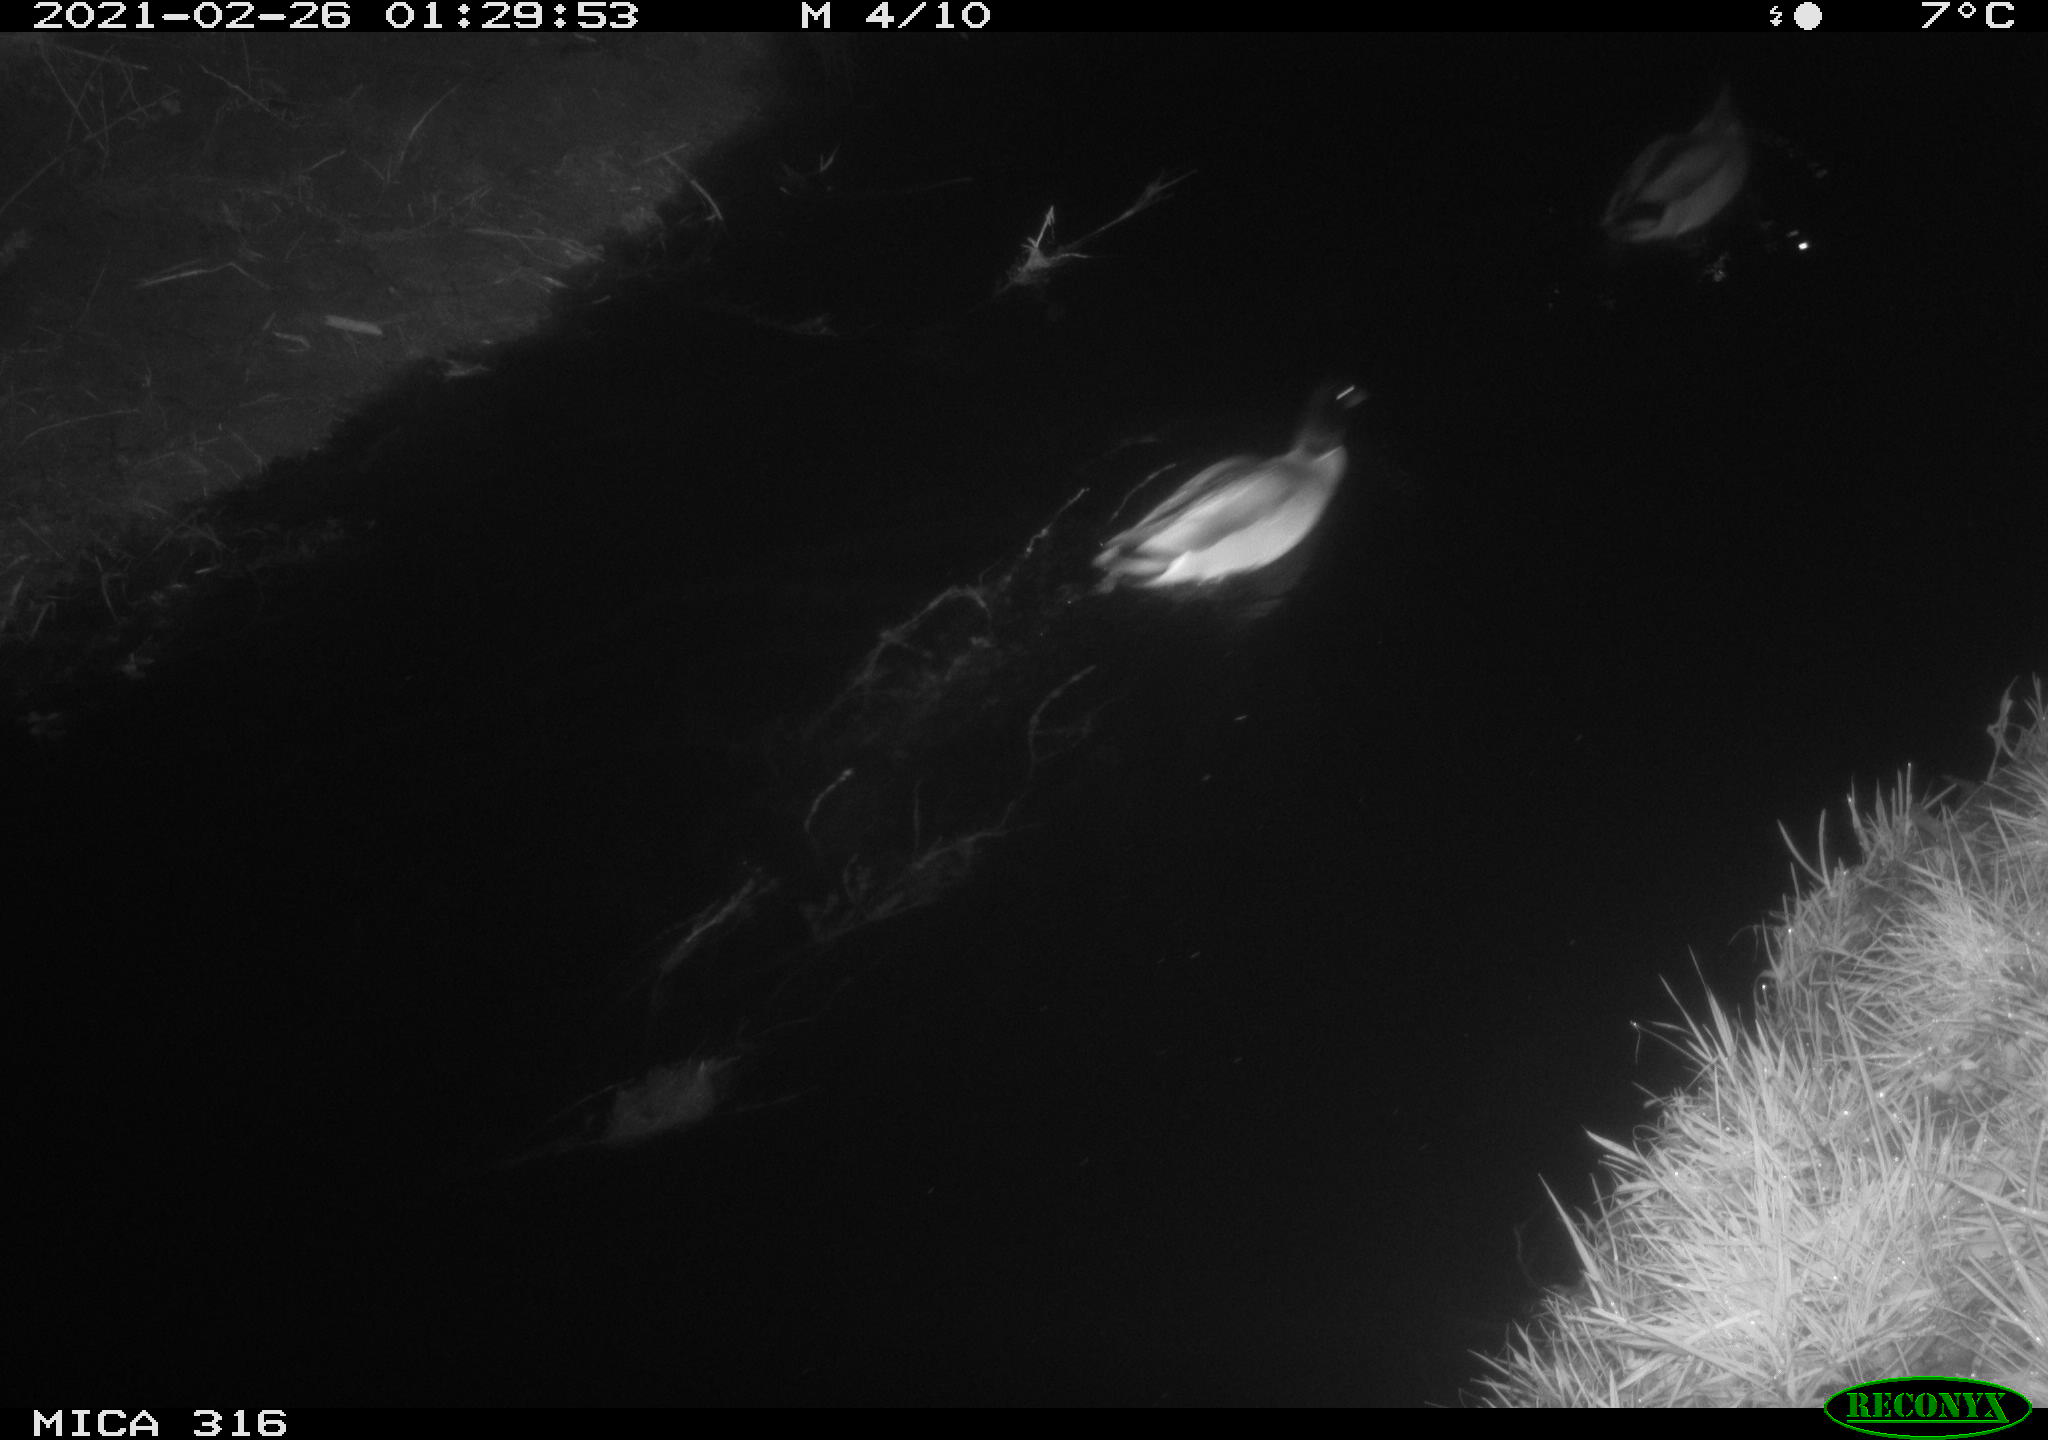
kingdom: Animalia
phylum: Chordata
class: Aves
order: Anseriformes
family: Anatidae
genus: Anas
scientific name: Anas platyrhynchos
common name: Mallard
